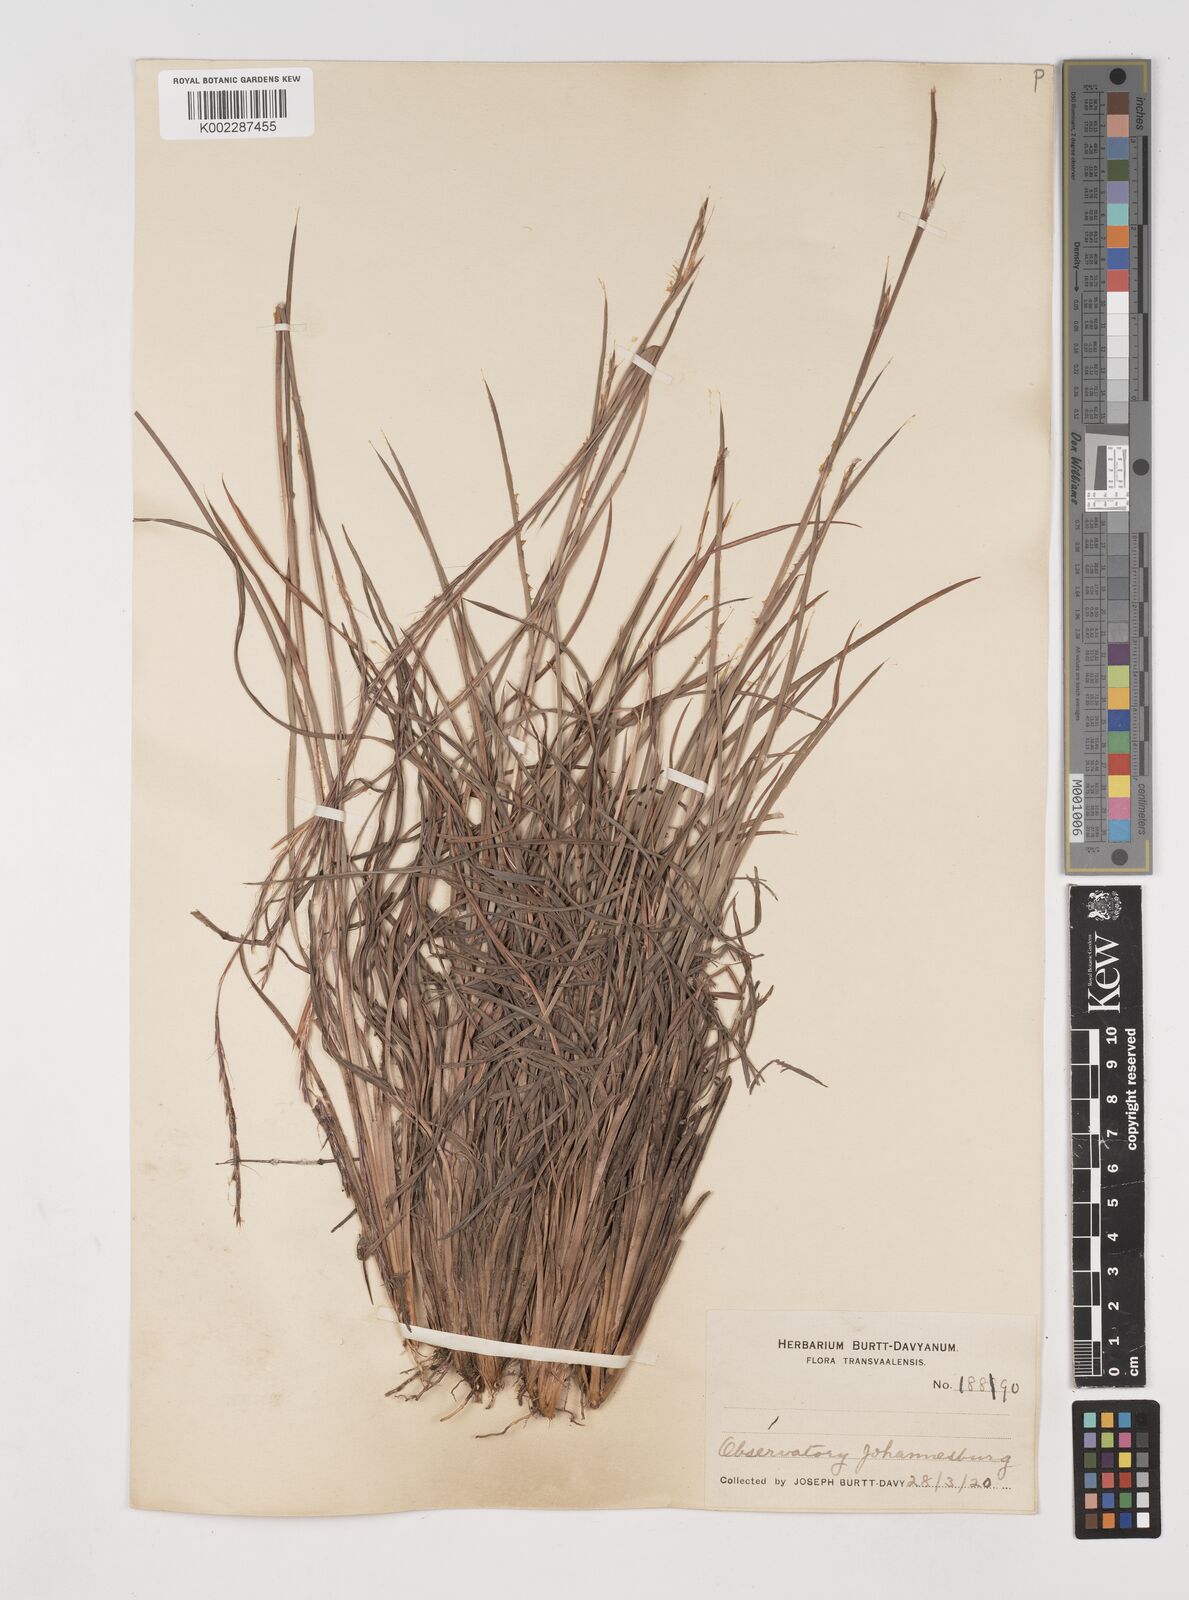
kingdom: Plantae
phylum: Tracheophyta
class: Liliopsida
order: Poales
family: Poaceae
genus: Schizachyrium
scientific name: Schizachyrium sanguineum
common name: Crimson bluestem
